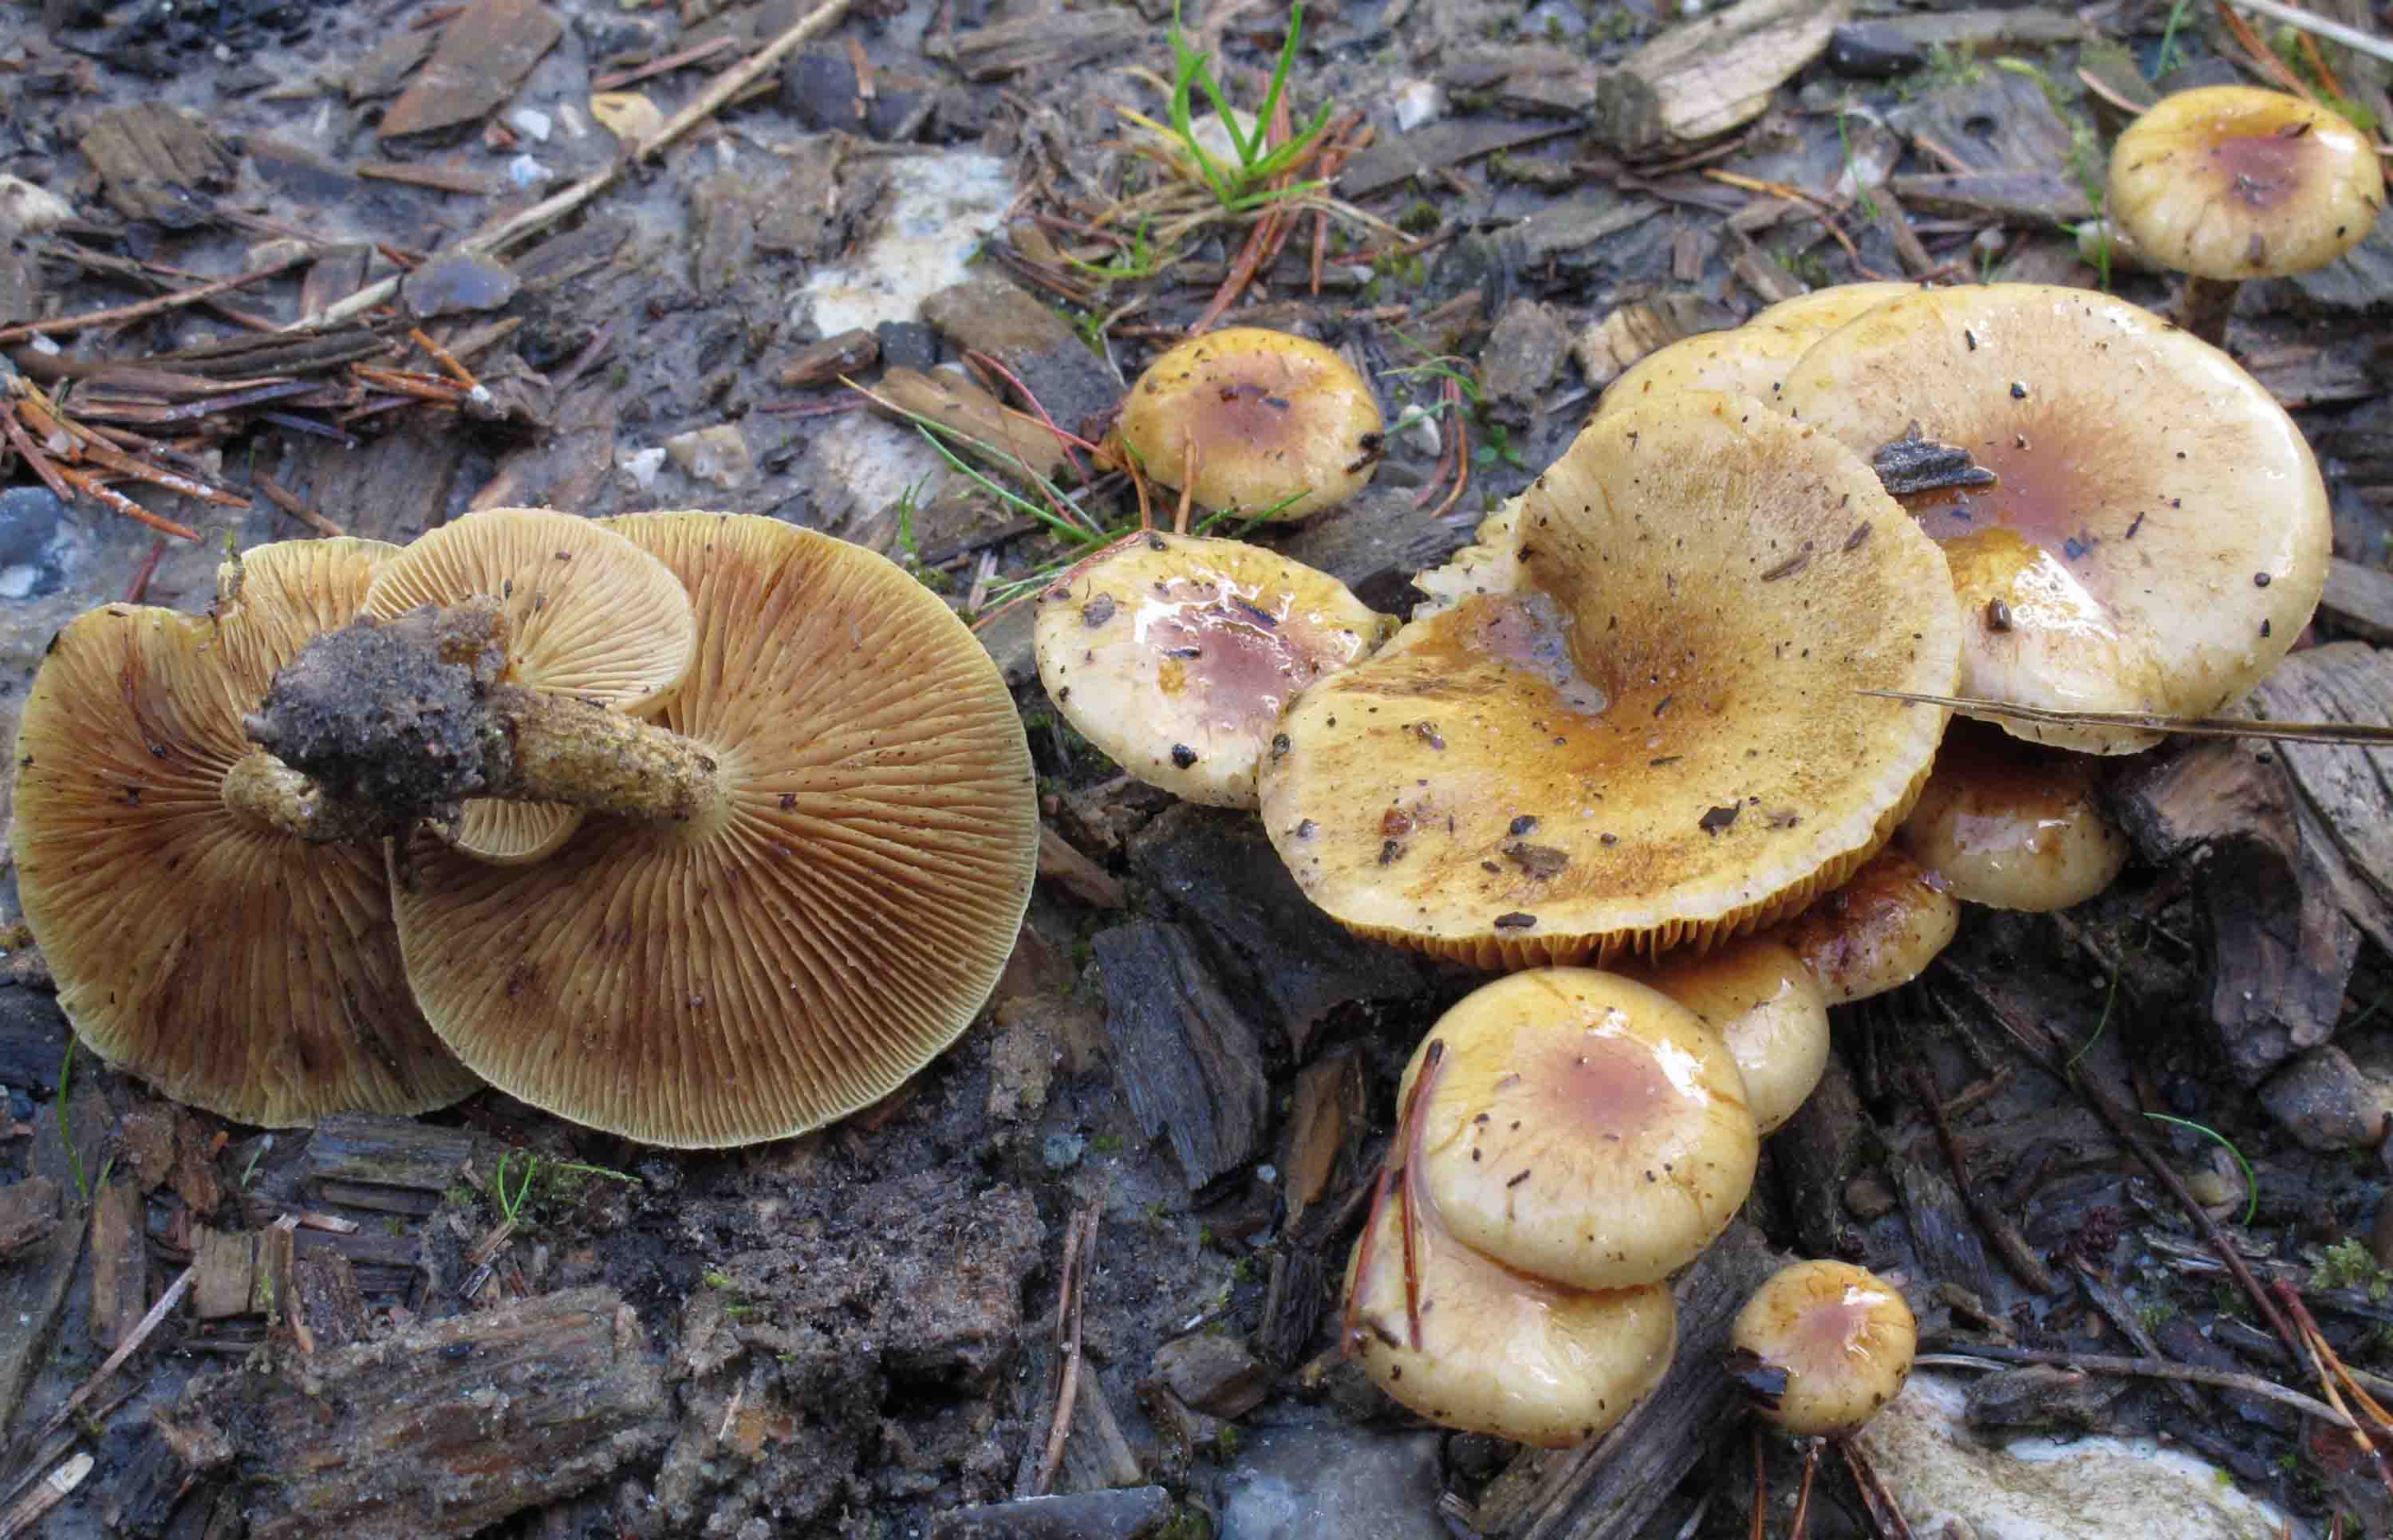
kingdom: Fungi
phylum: Basidiomycota
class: Agaricomycetes
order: Agaricales
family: Strophariaceae
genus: Pholiota
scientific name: Pholiota spumosa
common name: gran-skælhat
